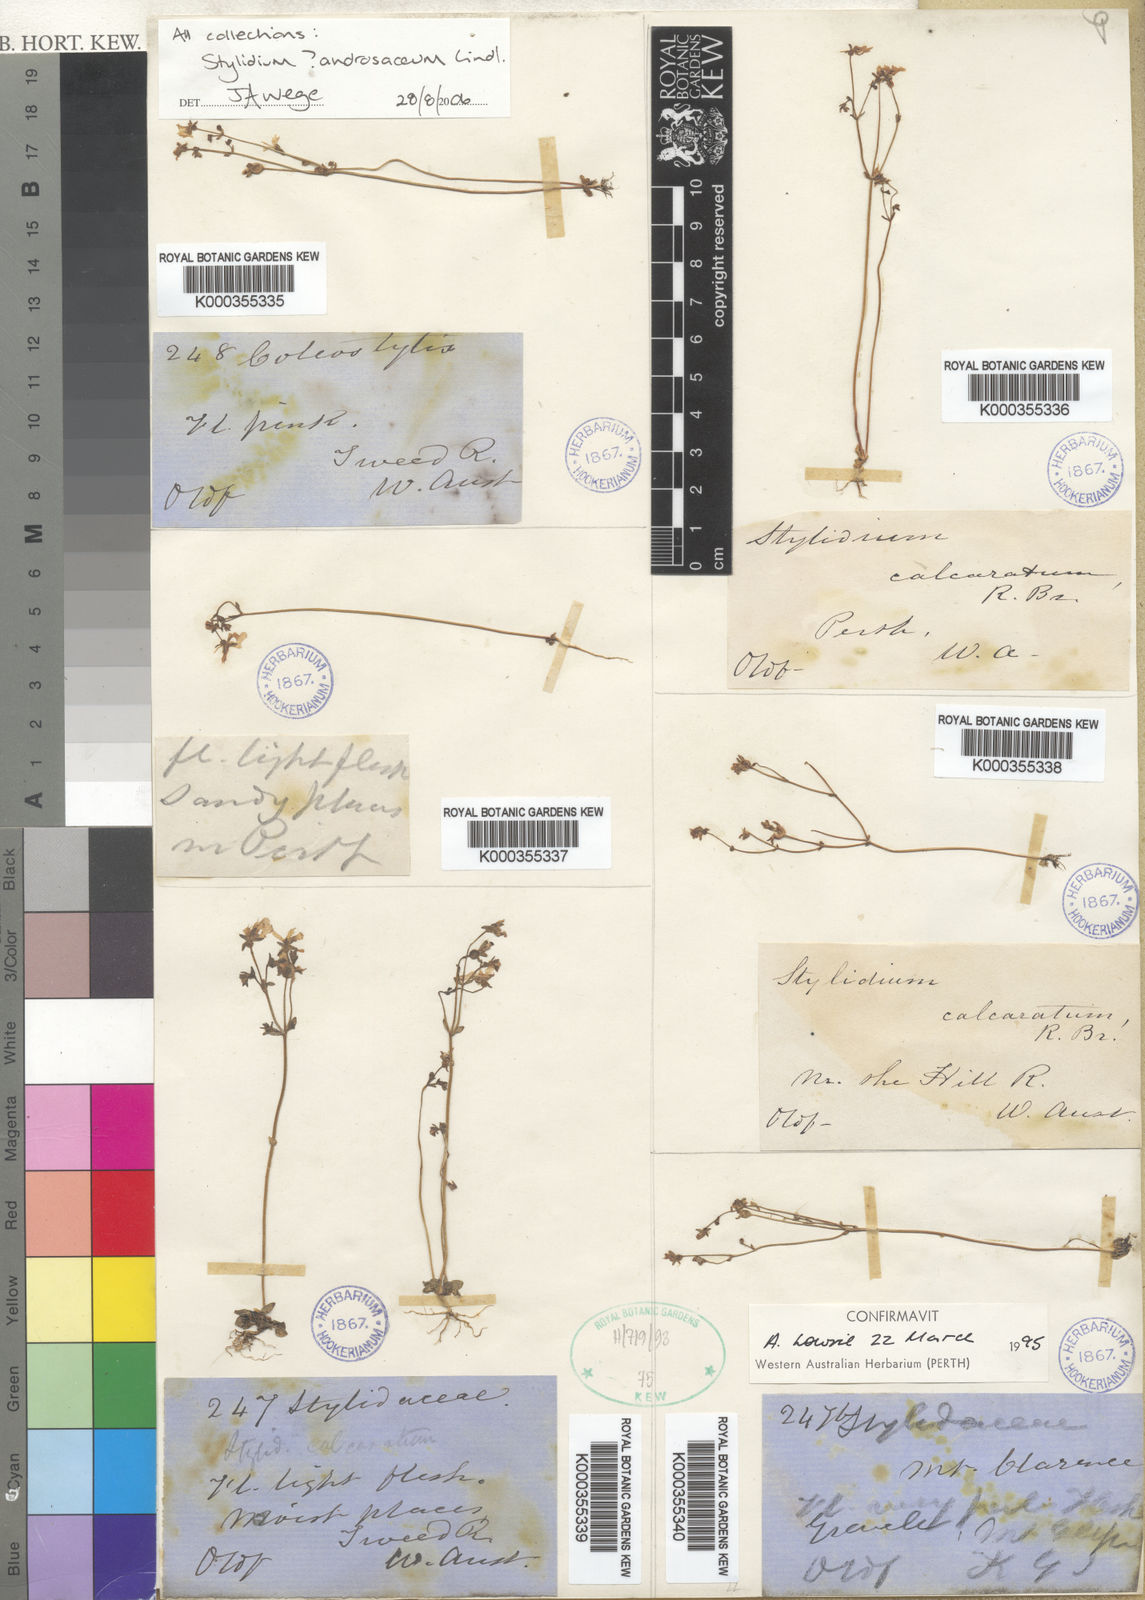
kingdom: Plantae
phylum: Tracheophyta
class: Magnoliopsida
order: Asterales
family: Stylidiaceae
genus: Stylidium
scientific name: Stylidium androsaceum
